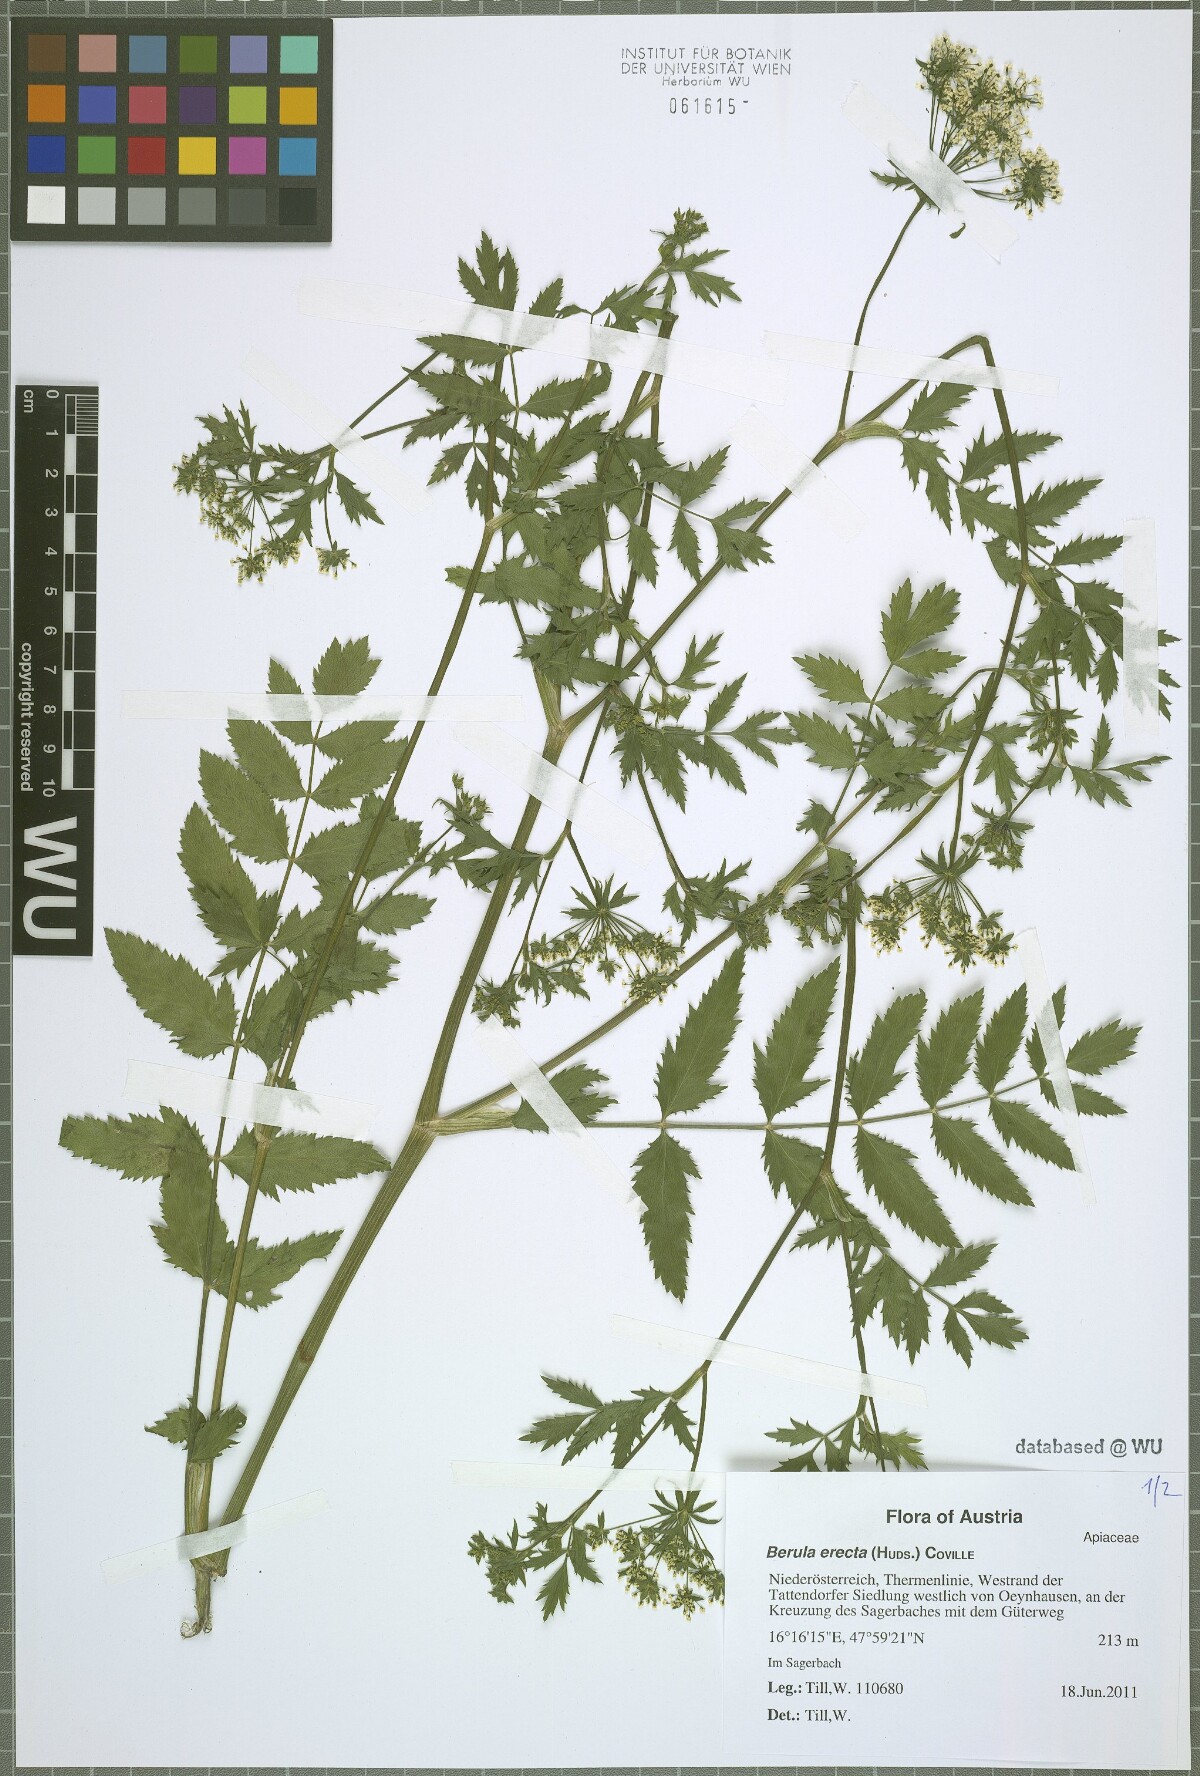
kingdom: Plantae
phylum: Tracheophyta
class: Magnoliopsida
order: Apiales
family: Apiaceae
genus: Berula
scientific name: Berula erecta
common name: Lesser water-parsnip
